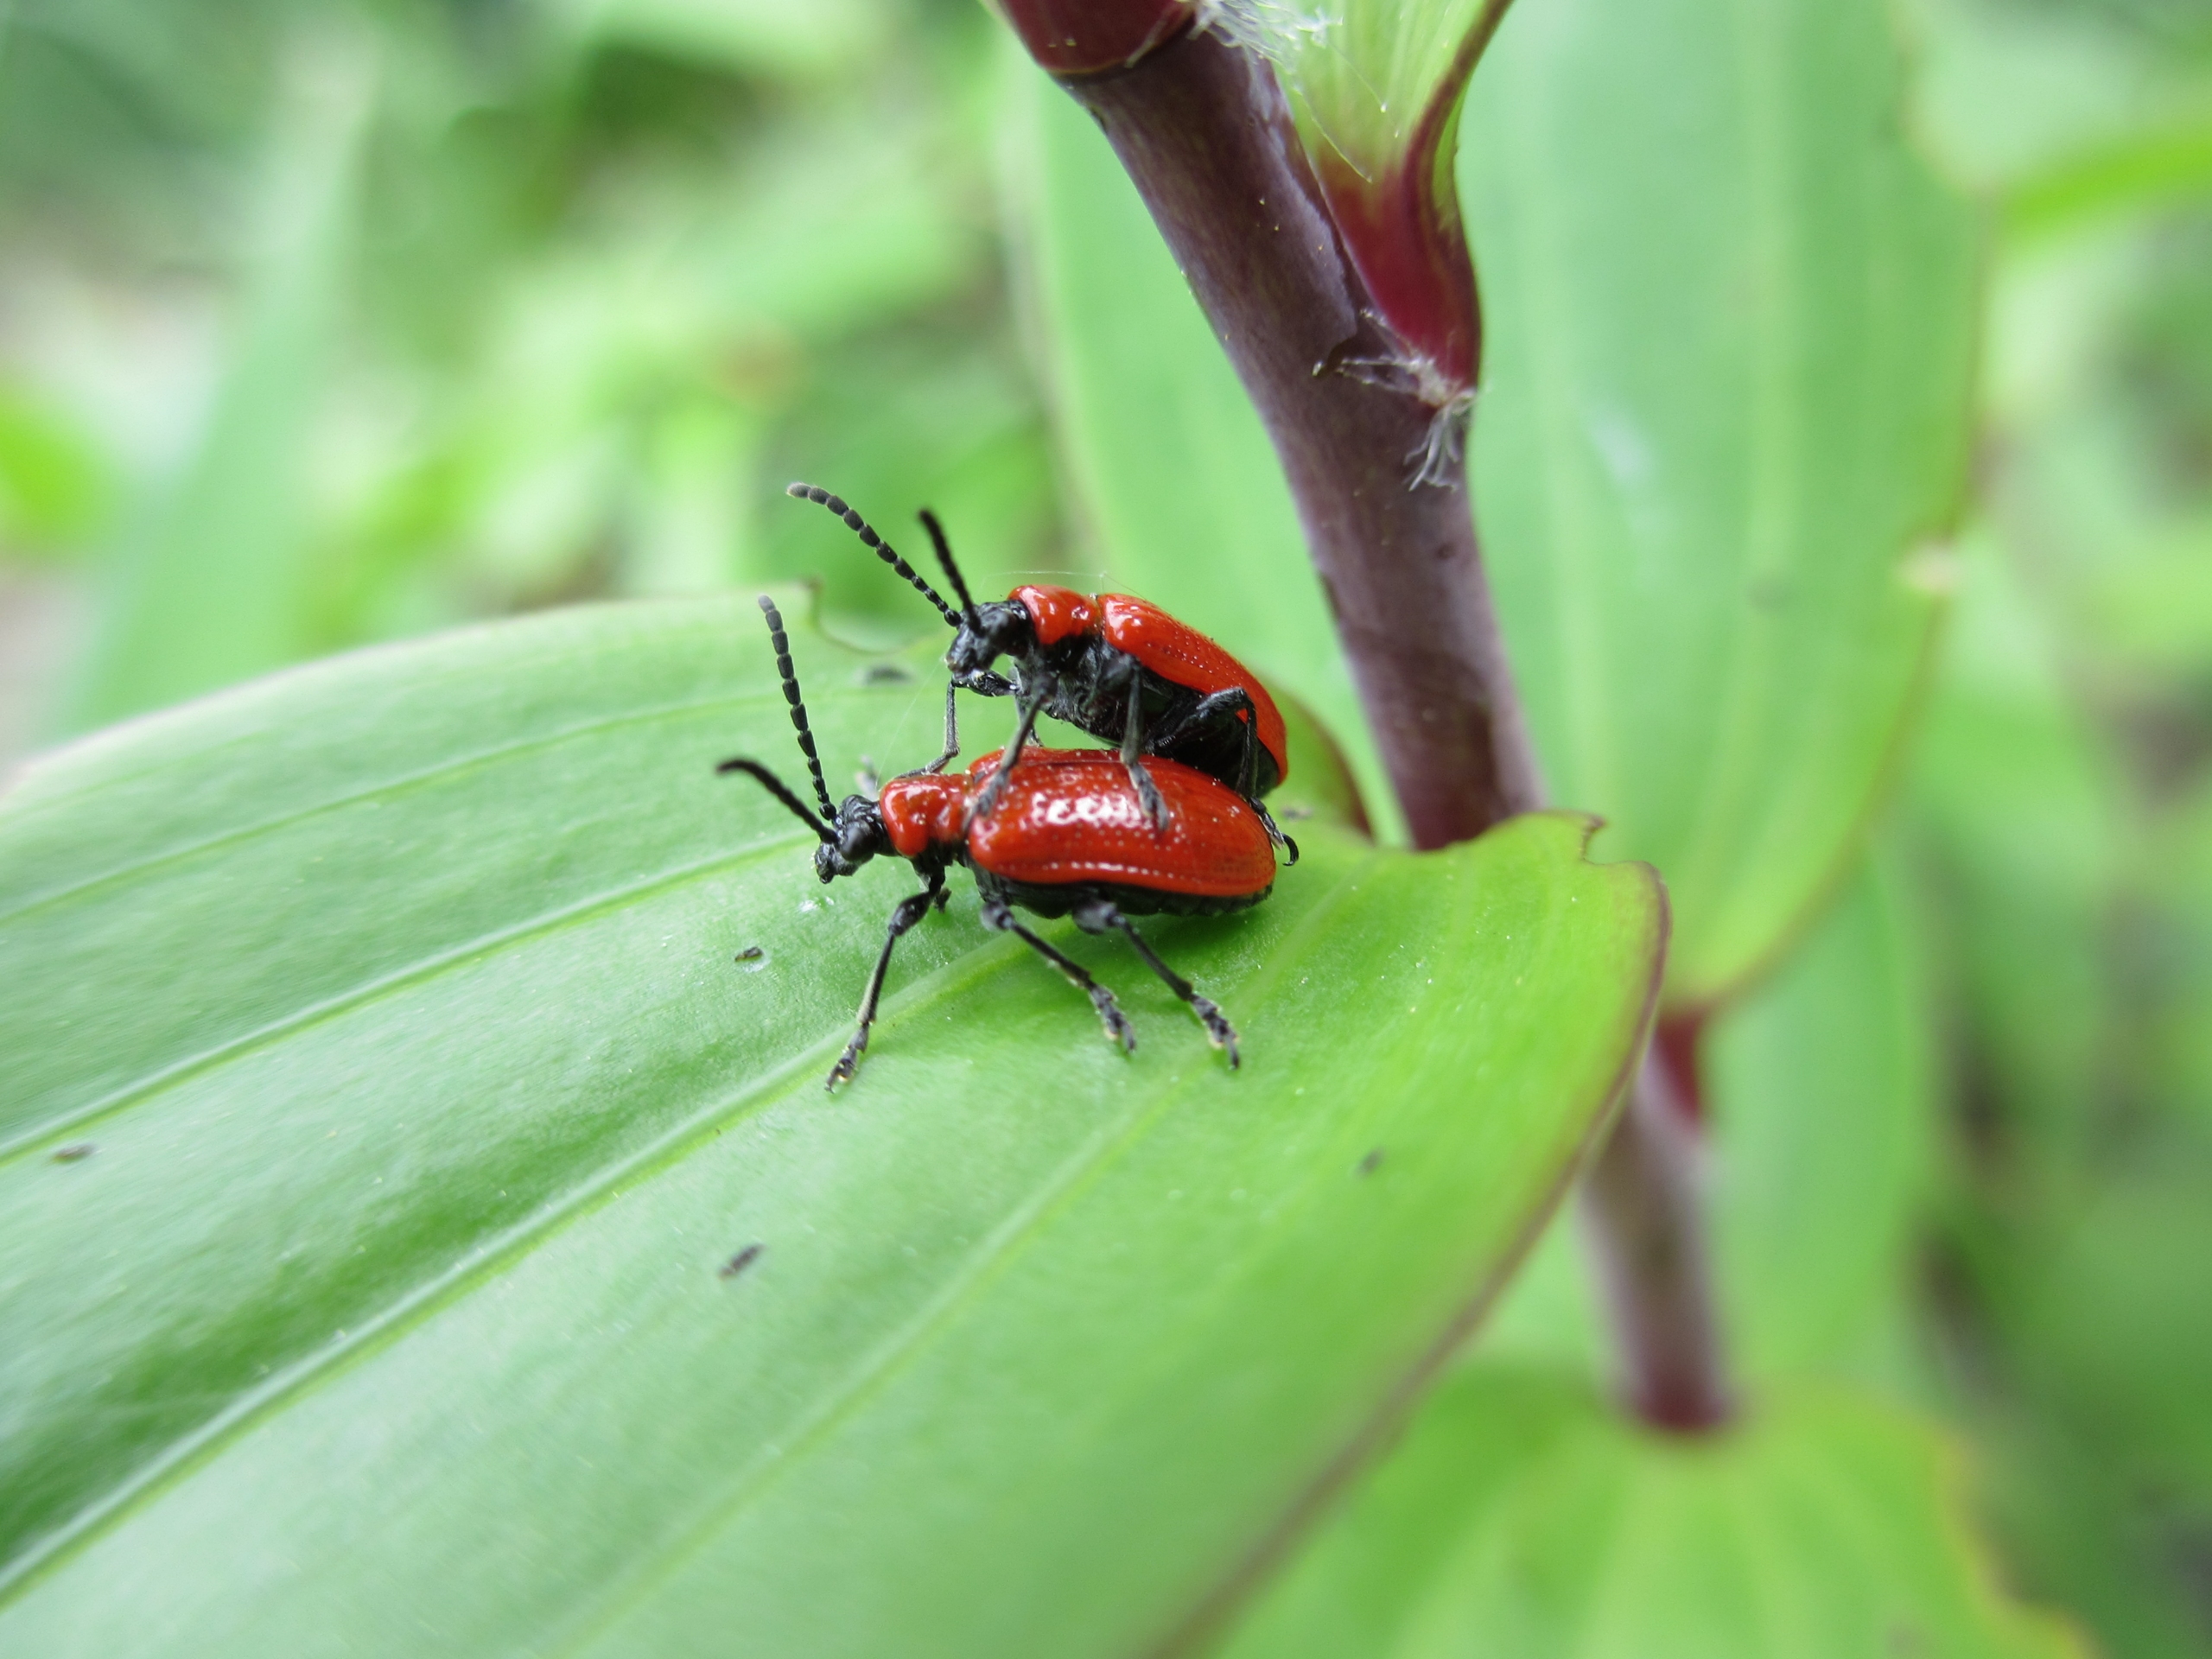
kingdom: Animalia
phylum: Arthropoda
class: Insecta
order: Coleoptera
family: Chrysomelidae
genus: Lilioceris
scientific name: Lilioceris lilii
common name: Liljebille
